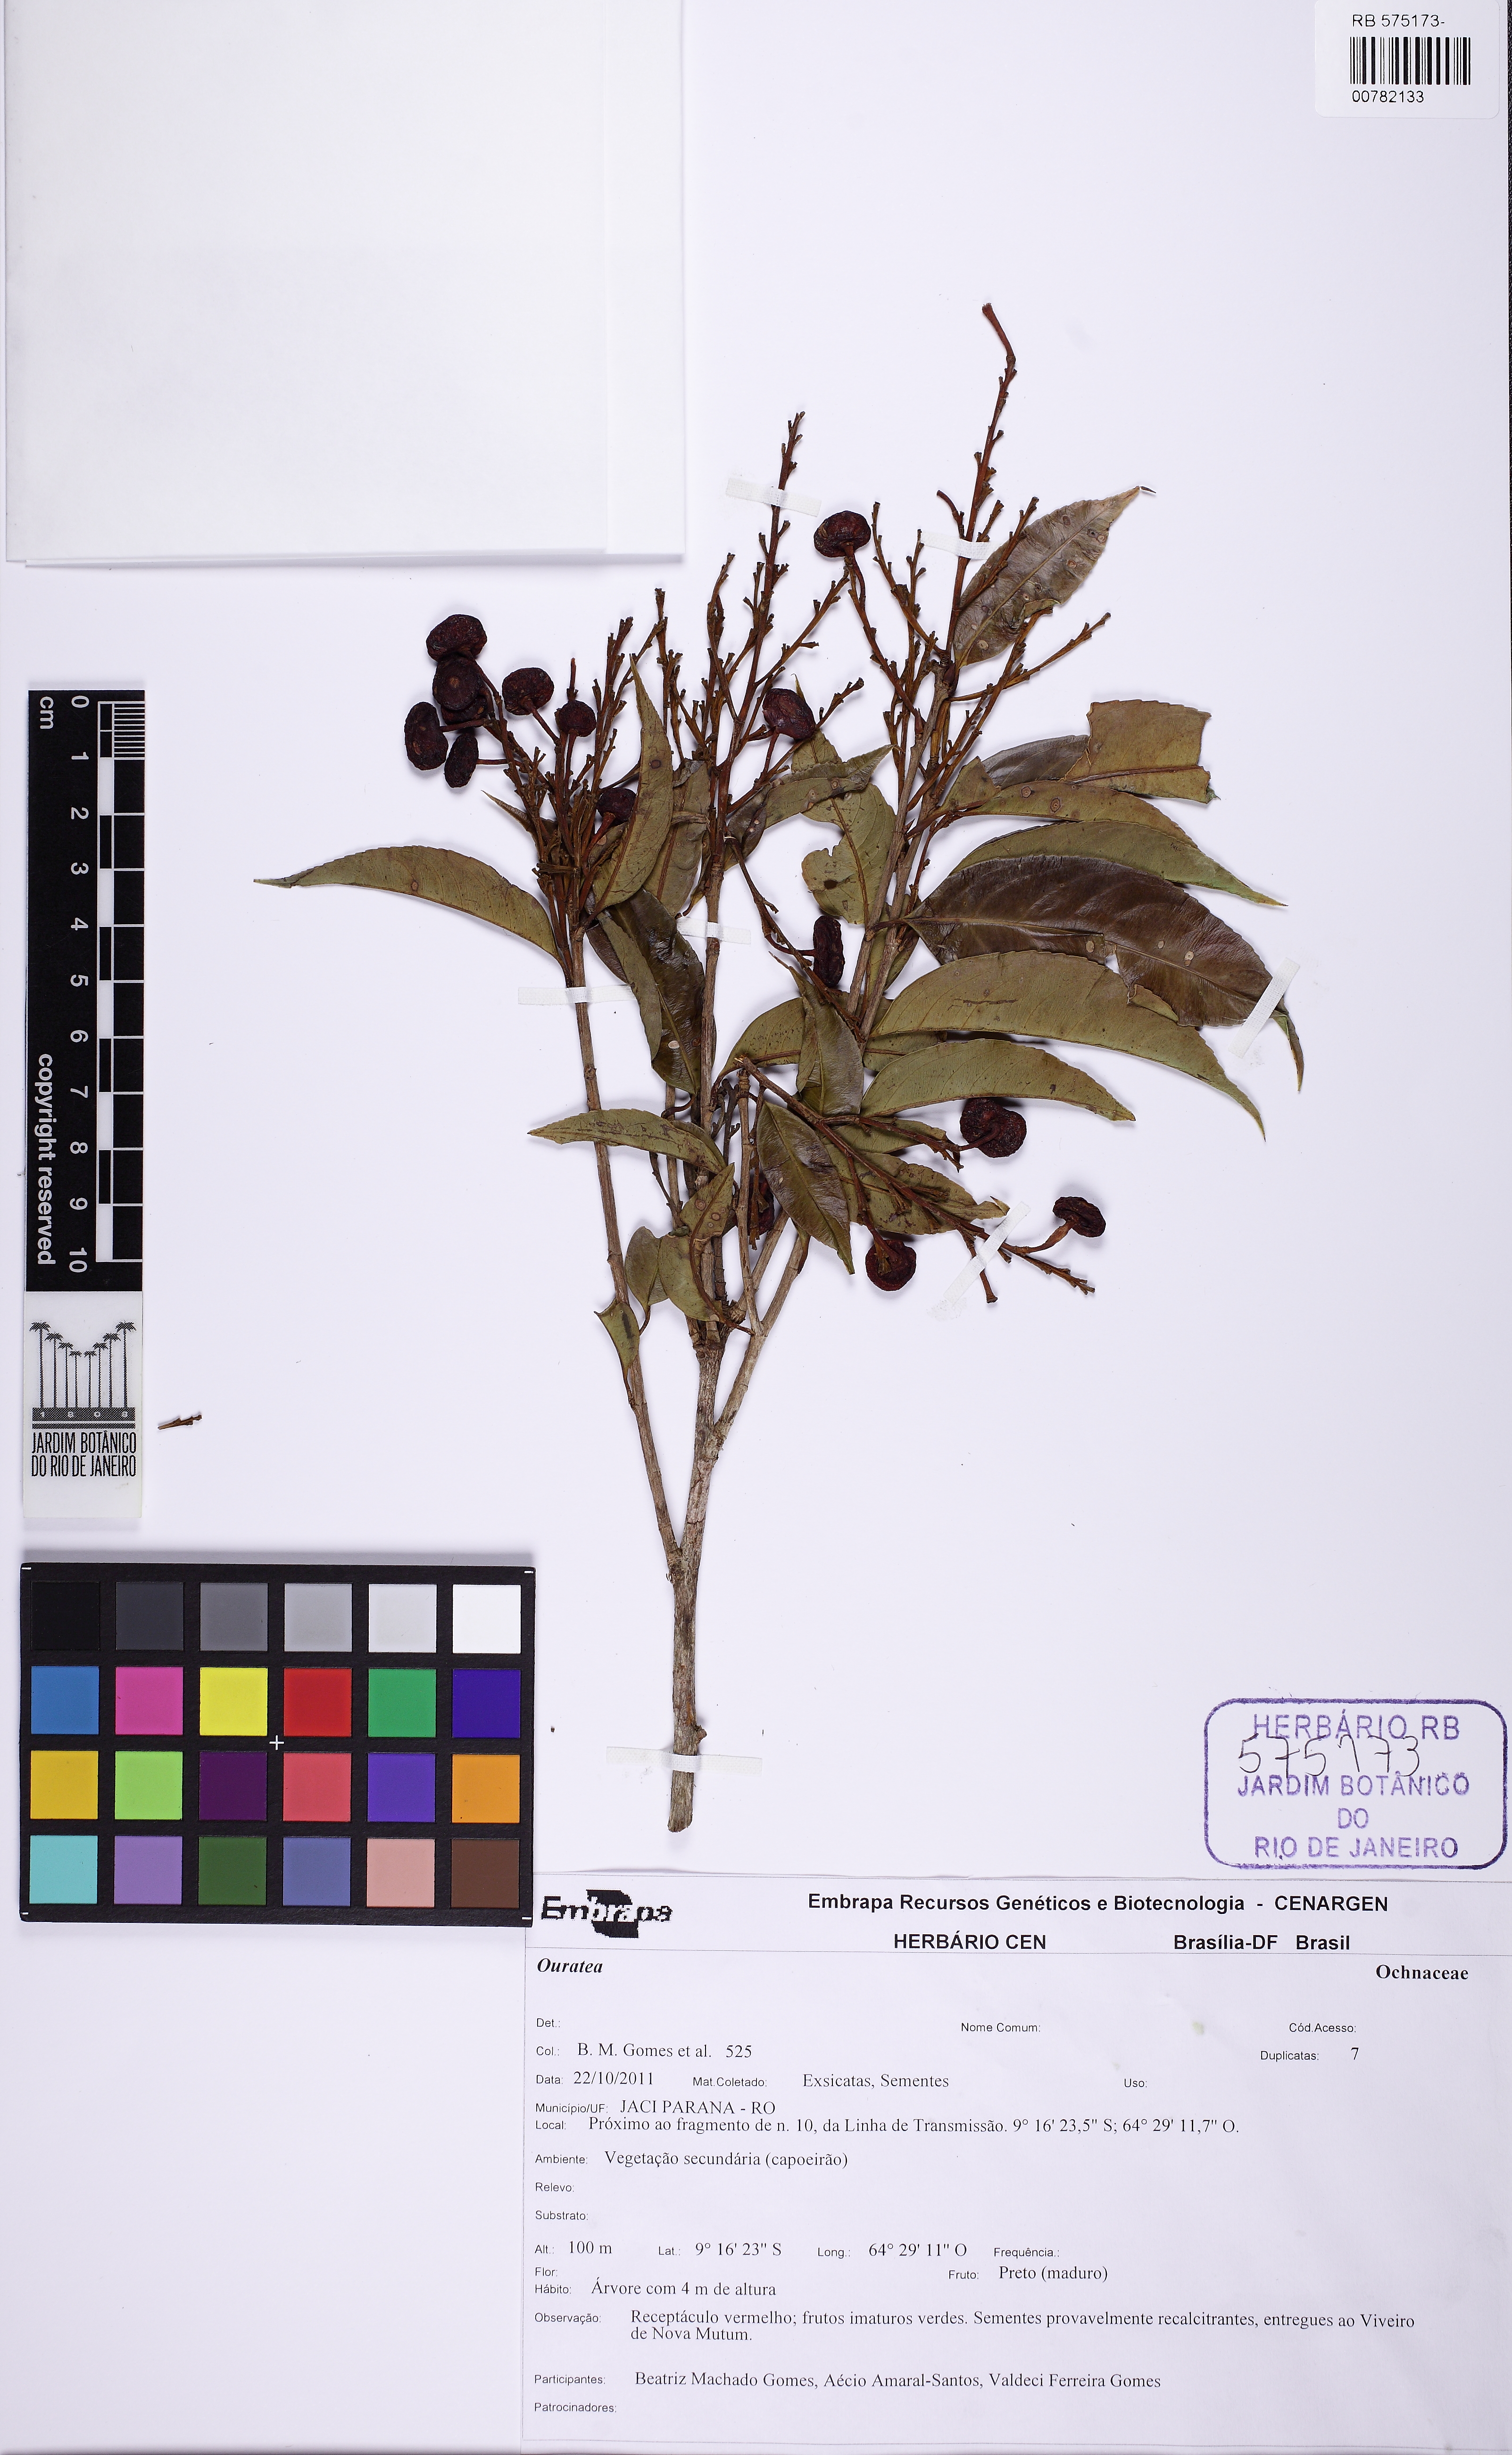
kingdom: Plantae
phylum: Tracheophyta
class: Magnoliopsida
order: Malpighiales
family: Ochnaceae
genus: Ouratea
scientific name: Ouratea
